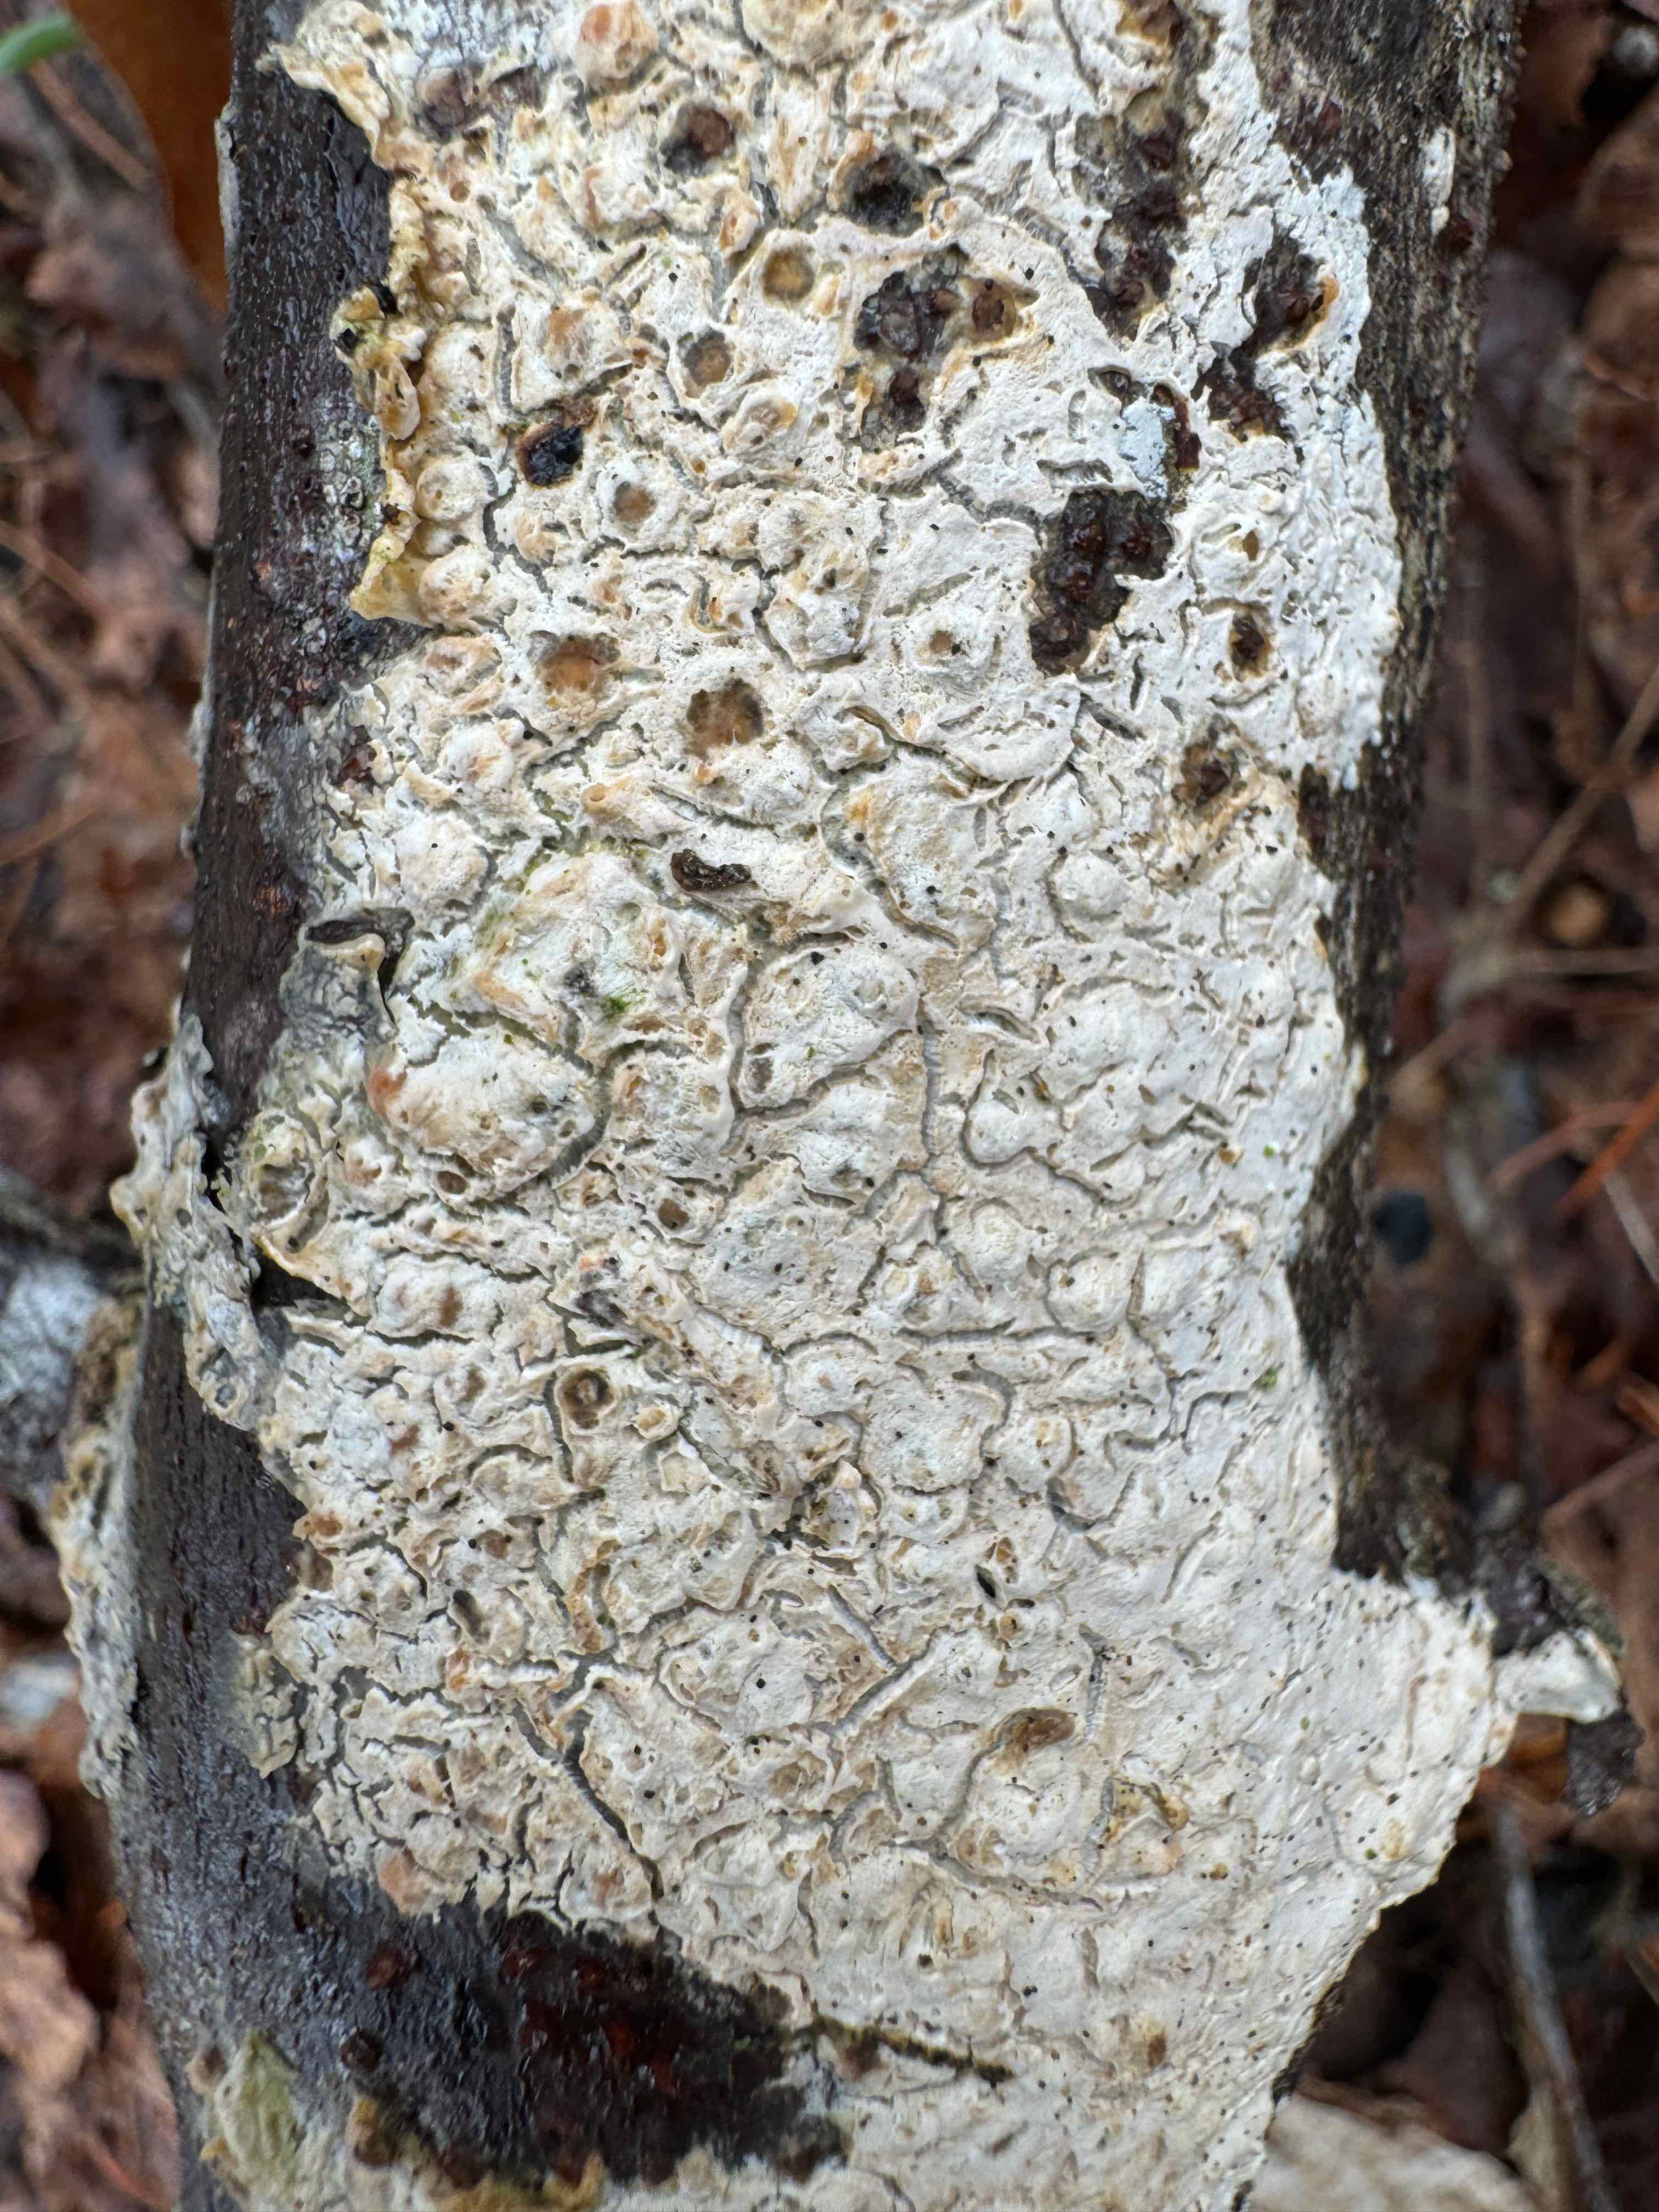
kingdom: Fungi
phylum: Basidiomycota
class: Agaricomycetes
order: Agaricales
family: Physalacriaceae
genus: Cylindrobasidium
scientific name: Cylindrobasidium evolvens
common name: sprækkehinde
